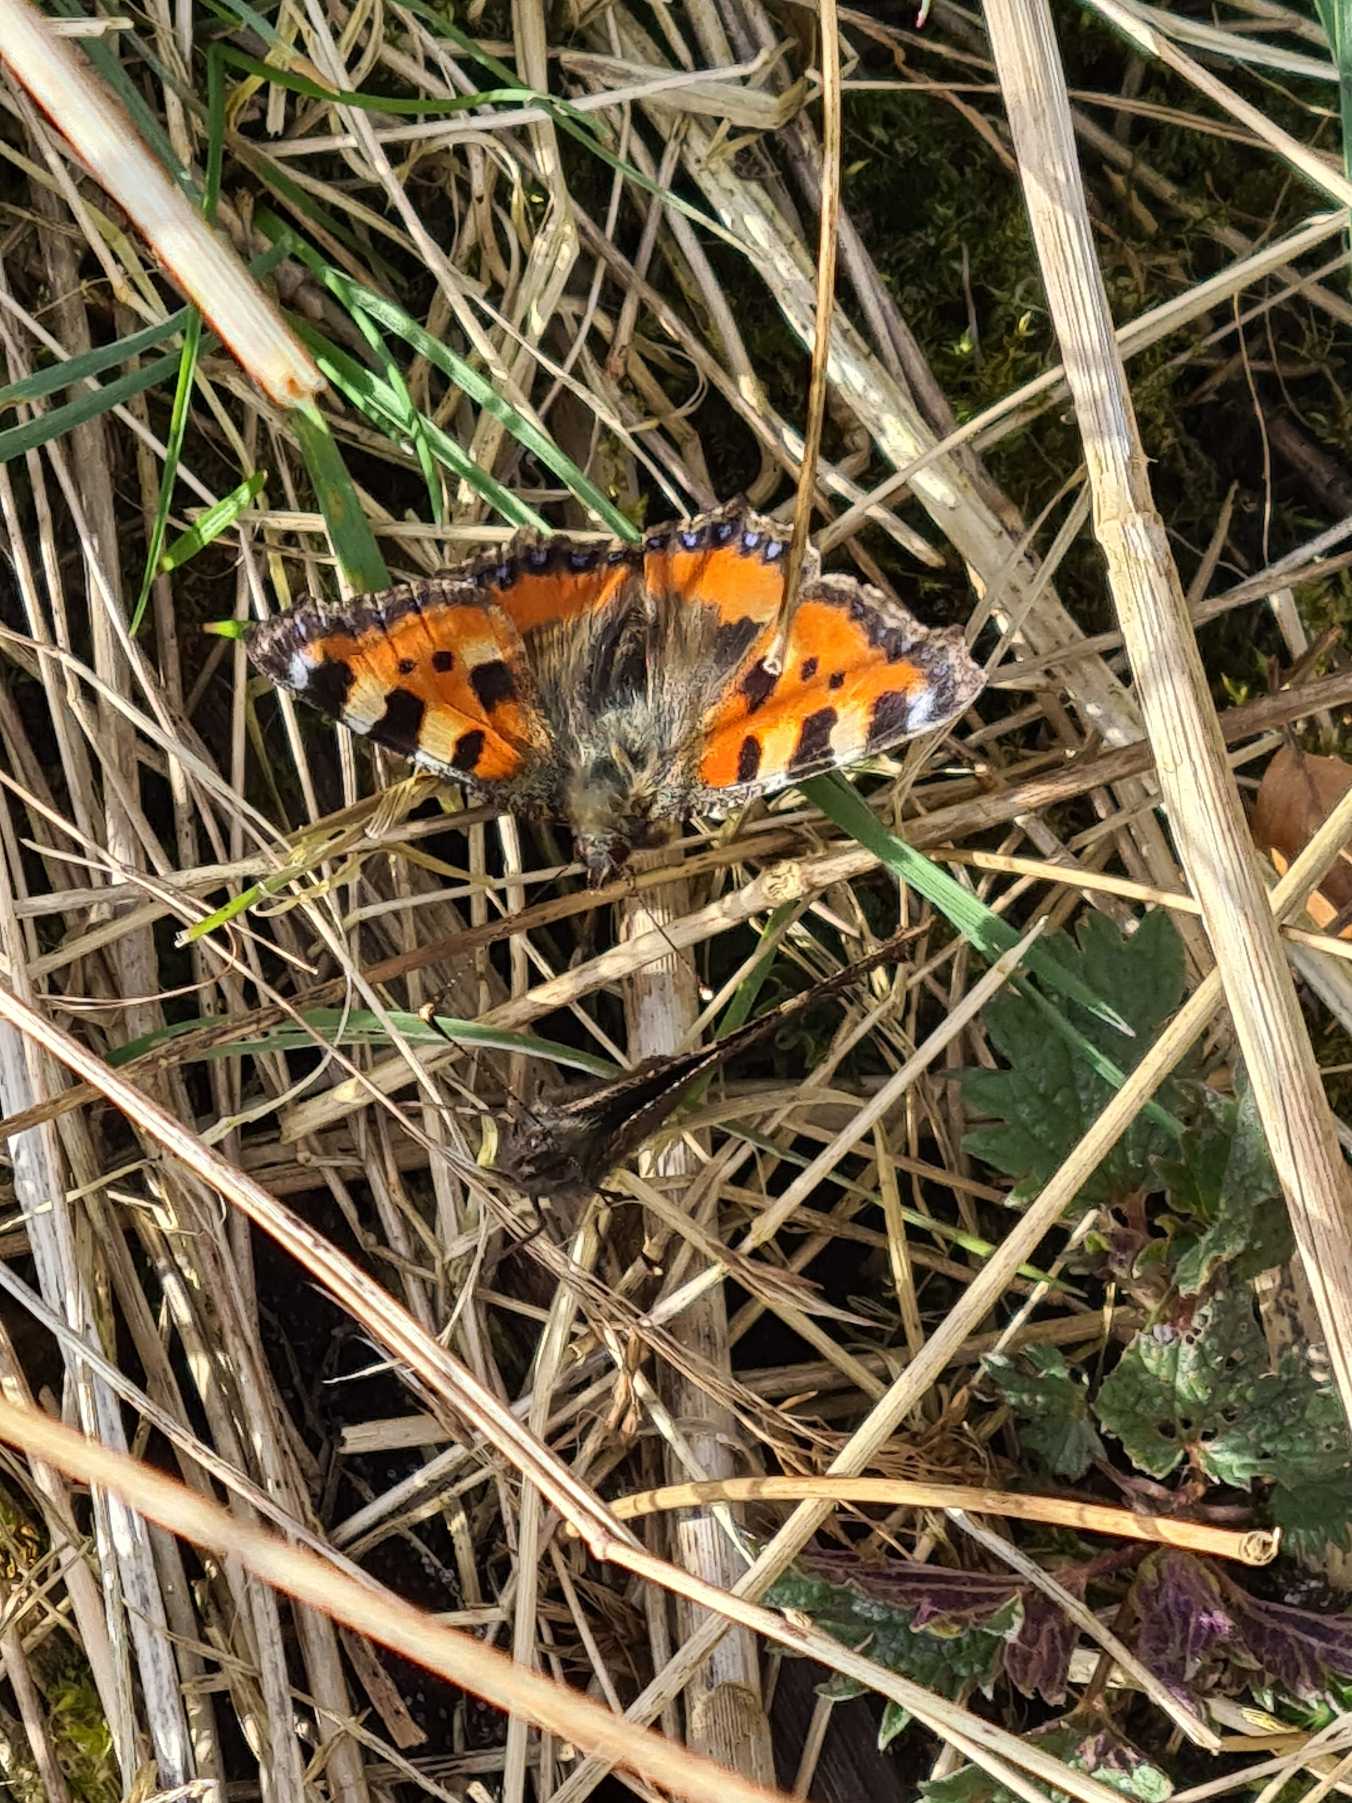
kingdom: Animalia
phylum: Arthropoda
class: Insecta
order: Lepidoptera
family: Nymphalidae
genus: Aglais
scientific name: Aglais urticae
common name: Nældens takvinge
